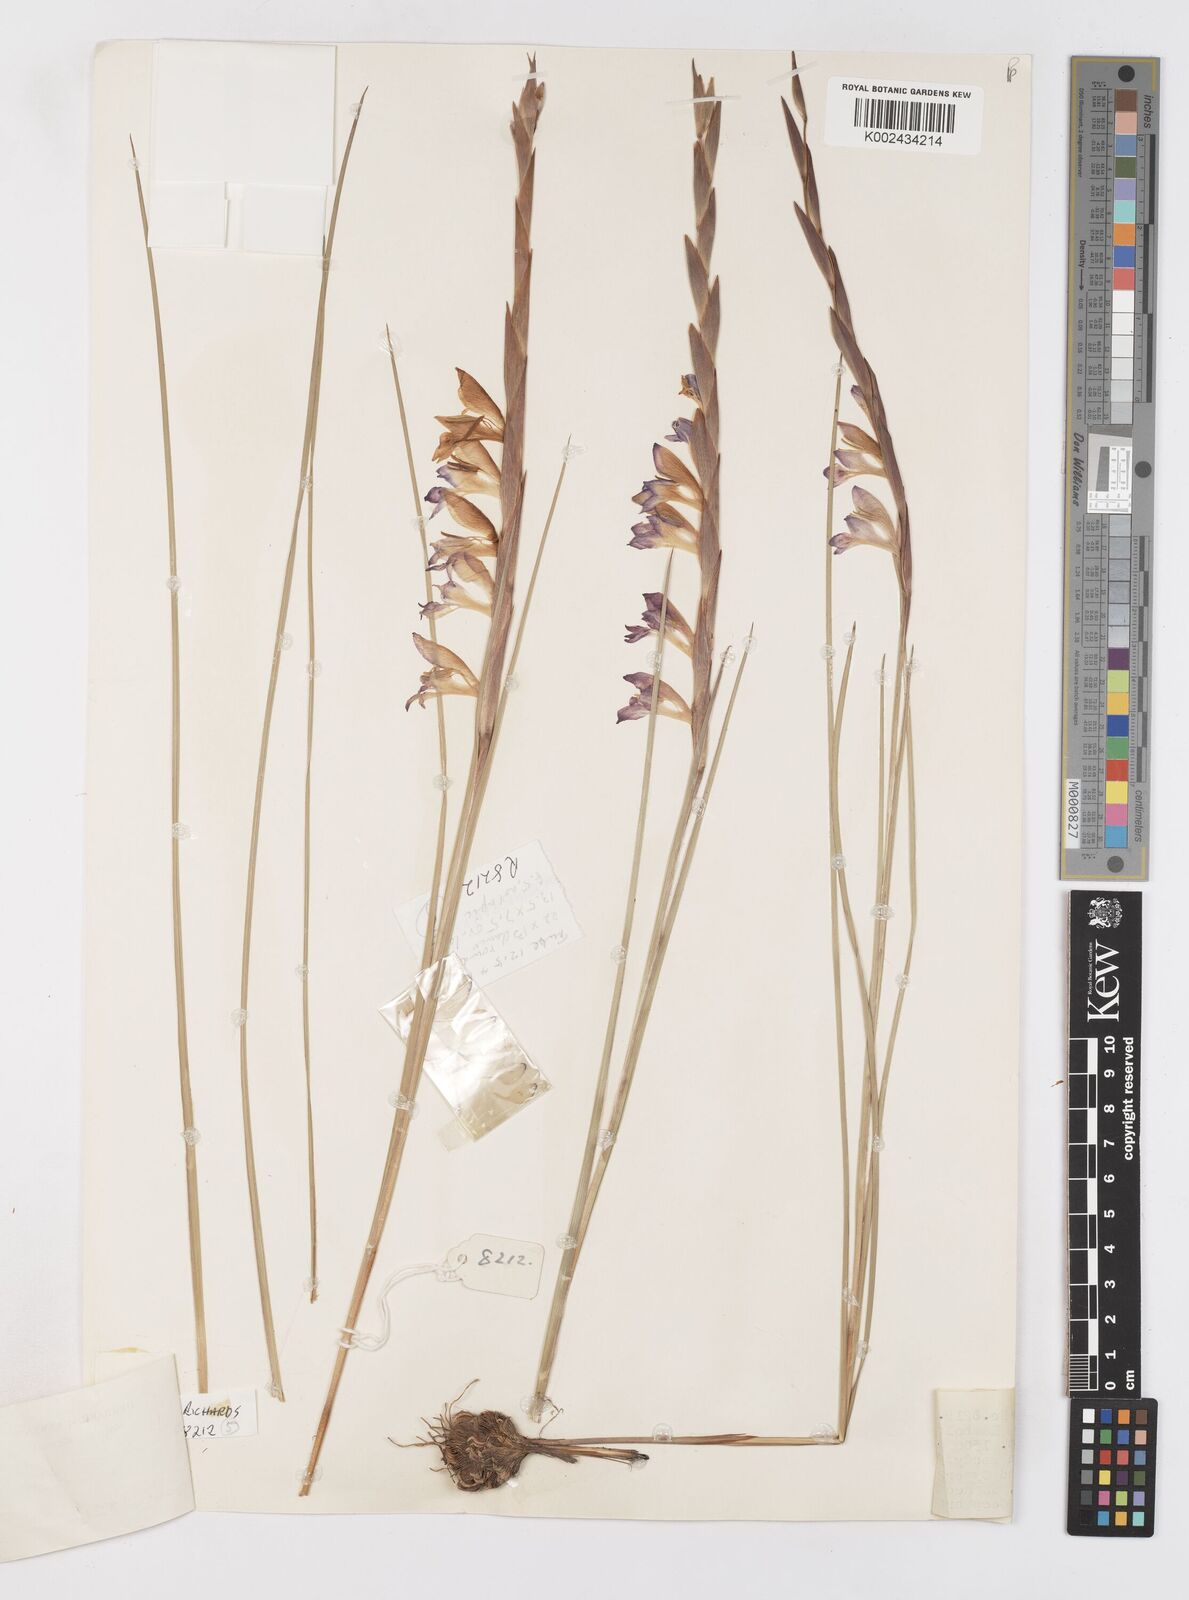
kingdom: Plantae
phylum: Tracheophyta
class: Liliopsida
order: Asparagales
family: Iridaceae
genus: Gladiolus
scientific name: Gladiolus gregarius
